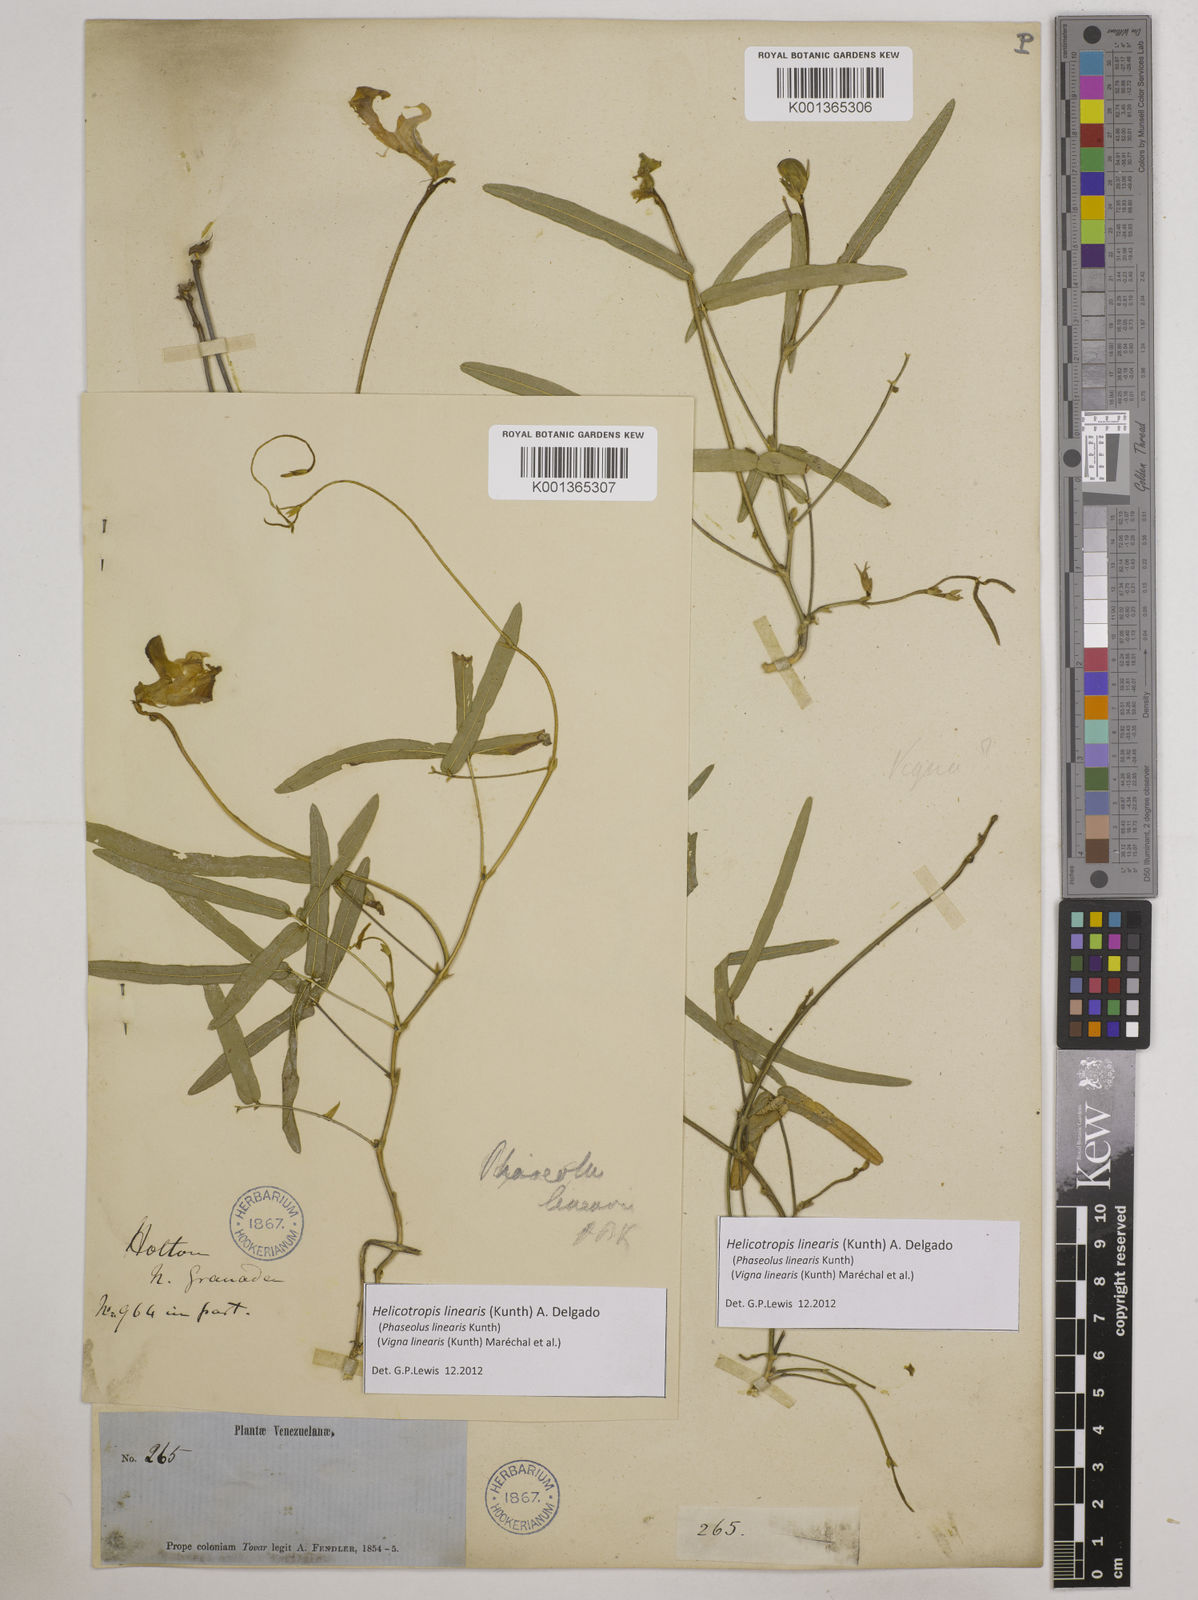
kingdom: Plantae
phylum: Tracheophyta
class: Magnoliopsida
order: Fabales
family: Fabaceae
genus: Helicotropis
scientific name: Helicotropis linearis
